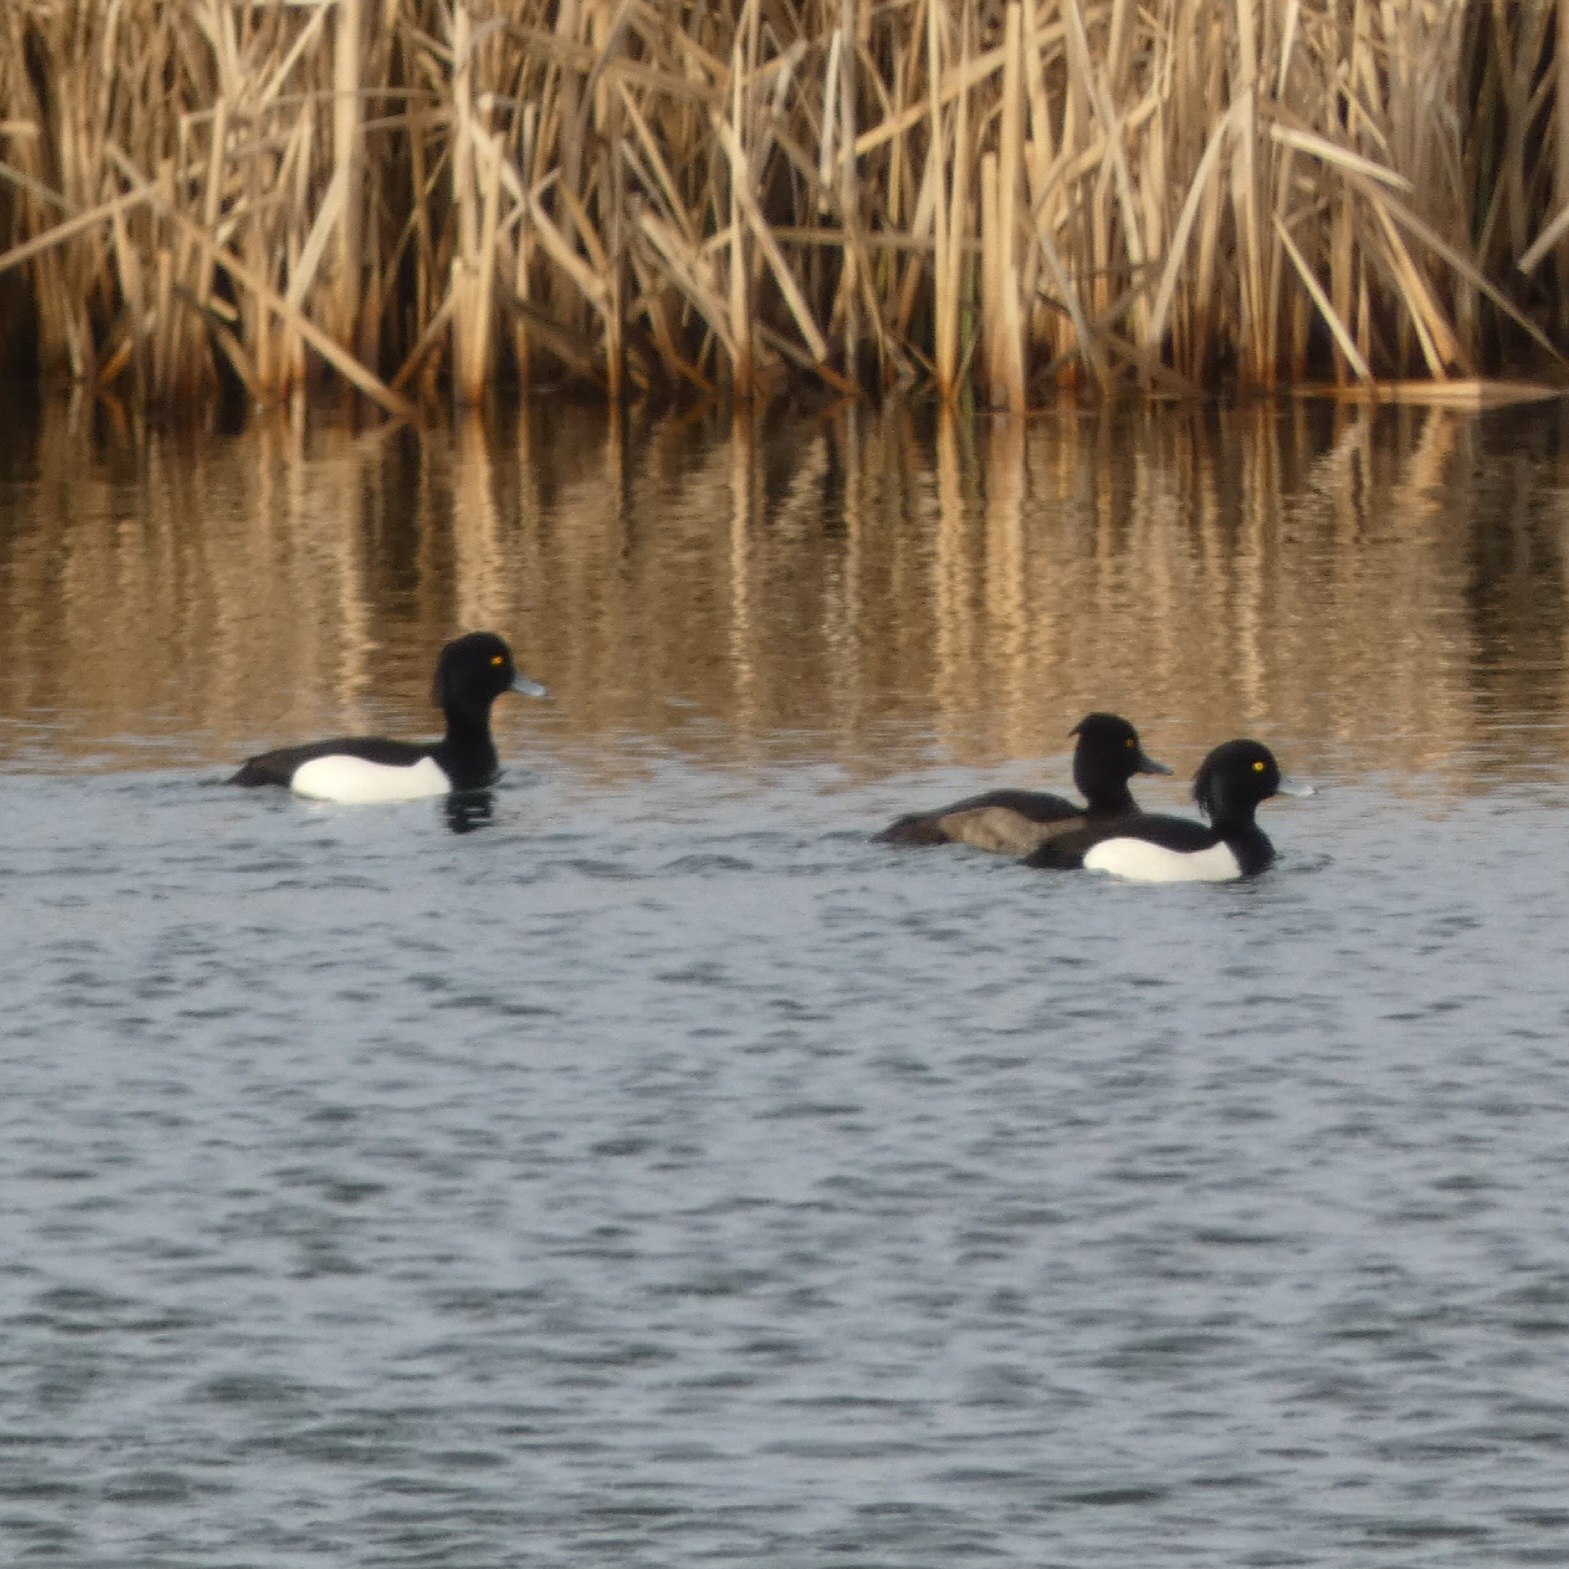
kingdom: Animalia
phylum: Chordata
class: Aves
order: Anseriformes
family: Anatidae
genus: Aythya
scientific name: Aythya fuligula
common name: Troldand
